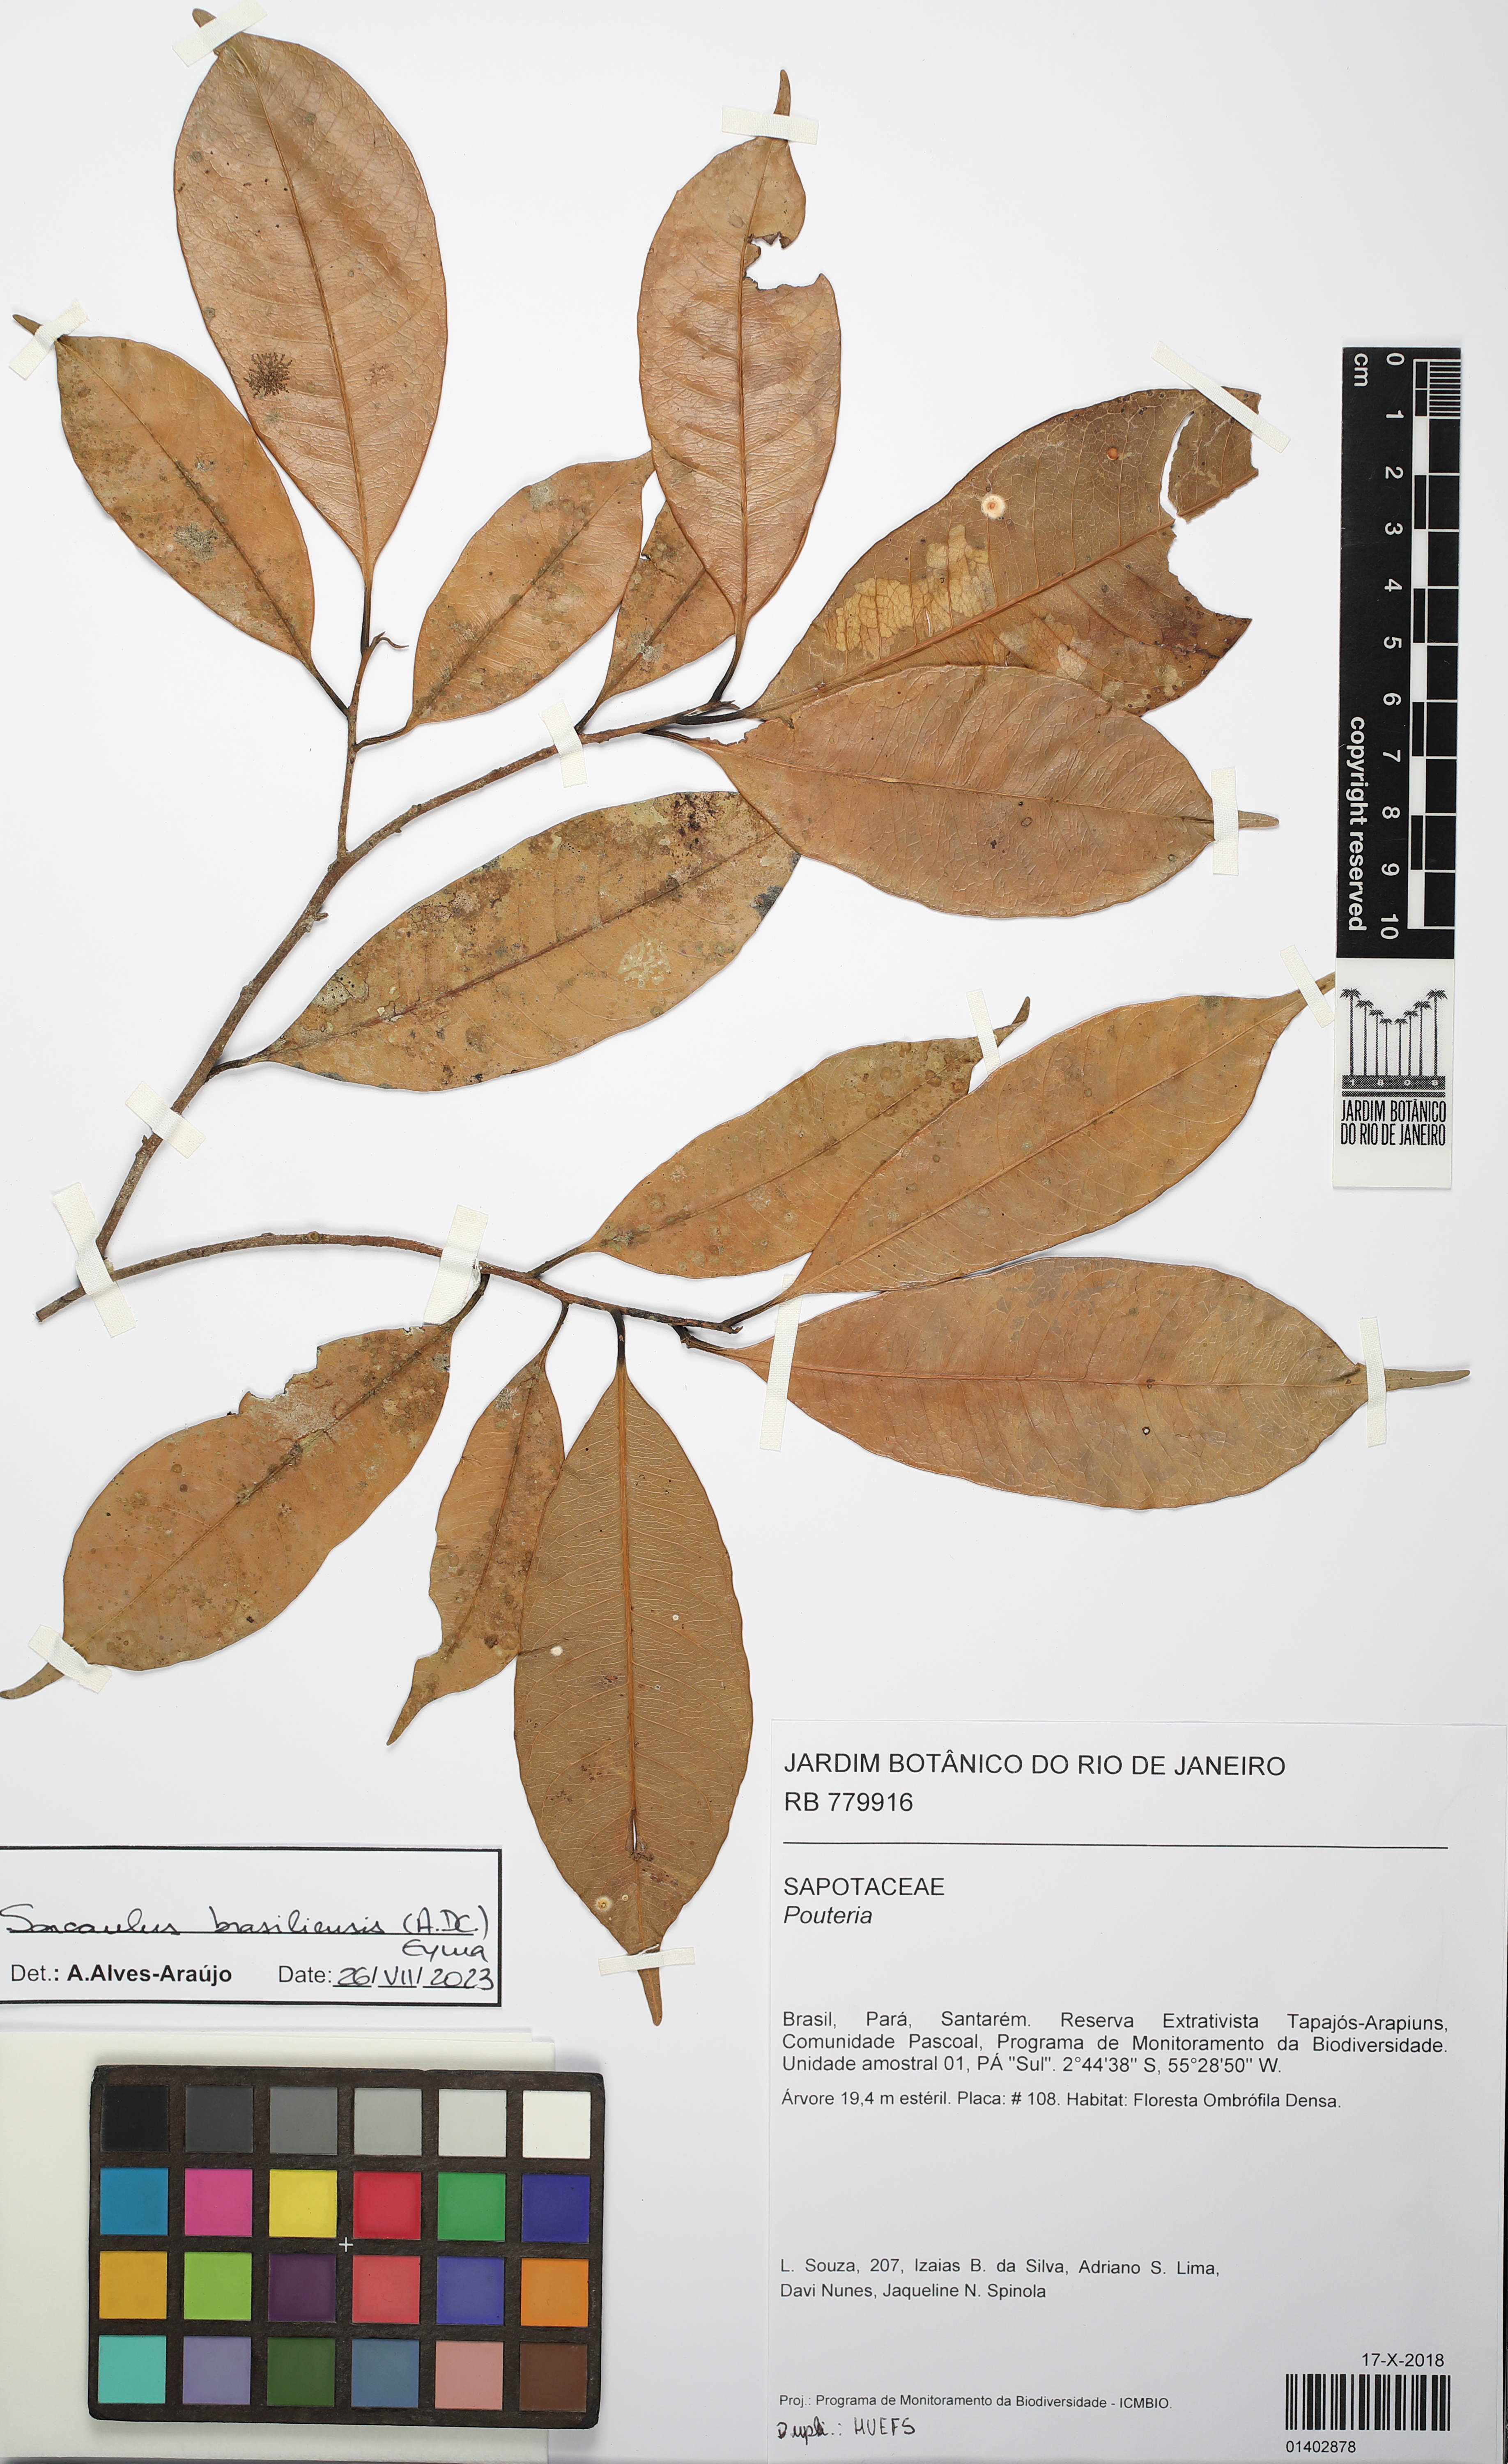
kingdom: Plantae
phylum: Tracheophyta
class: Magnoliopsida
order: Ericales
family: Sapotaceae
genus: Sarcaulus
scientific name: Sarcaulus brasiliensis
